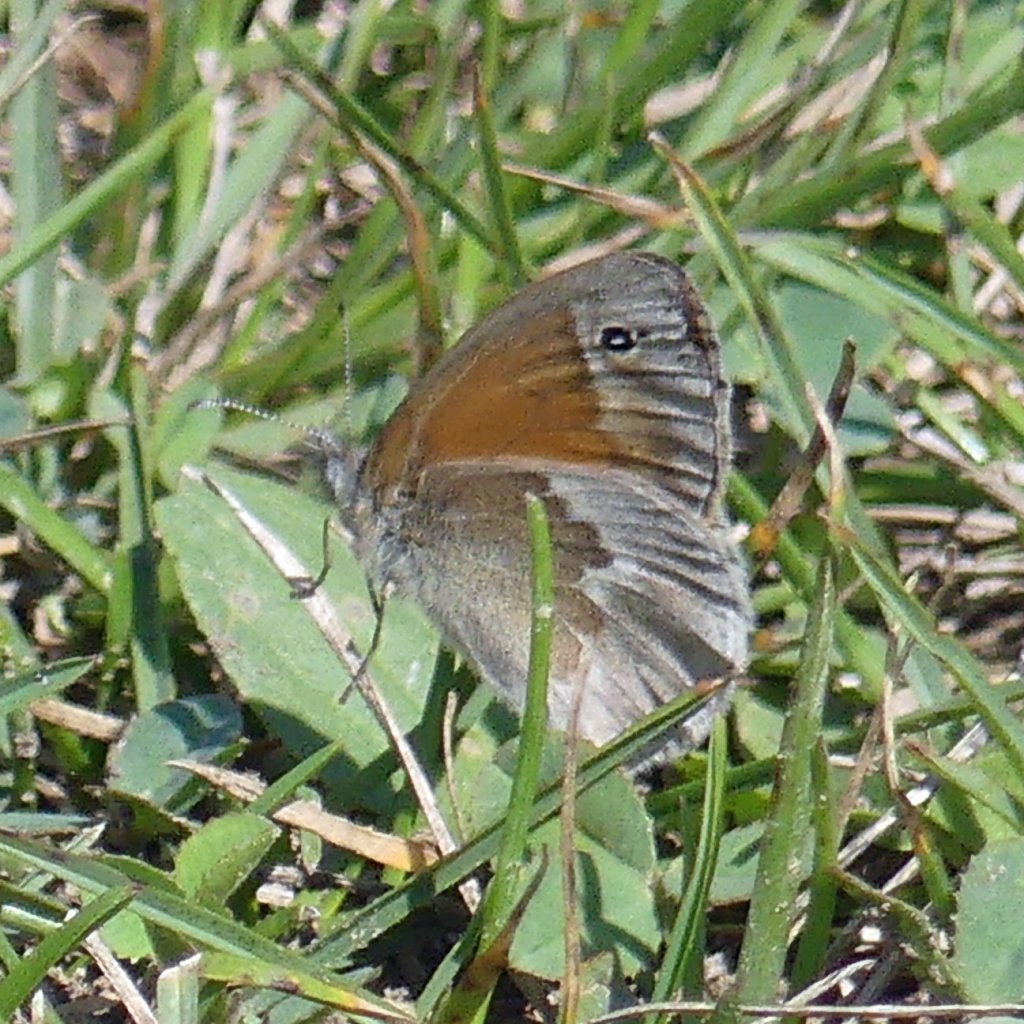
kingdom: Animalia
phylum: Arthropoda
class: Insecta
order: Lepidoptera
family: Nymphalidae
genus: Coenonympha
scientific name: Coenonympha tullia
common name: Large Heath
